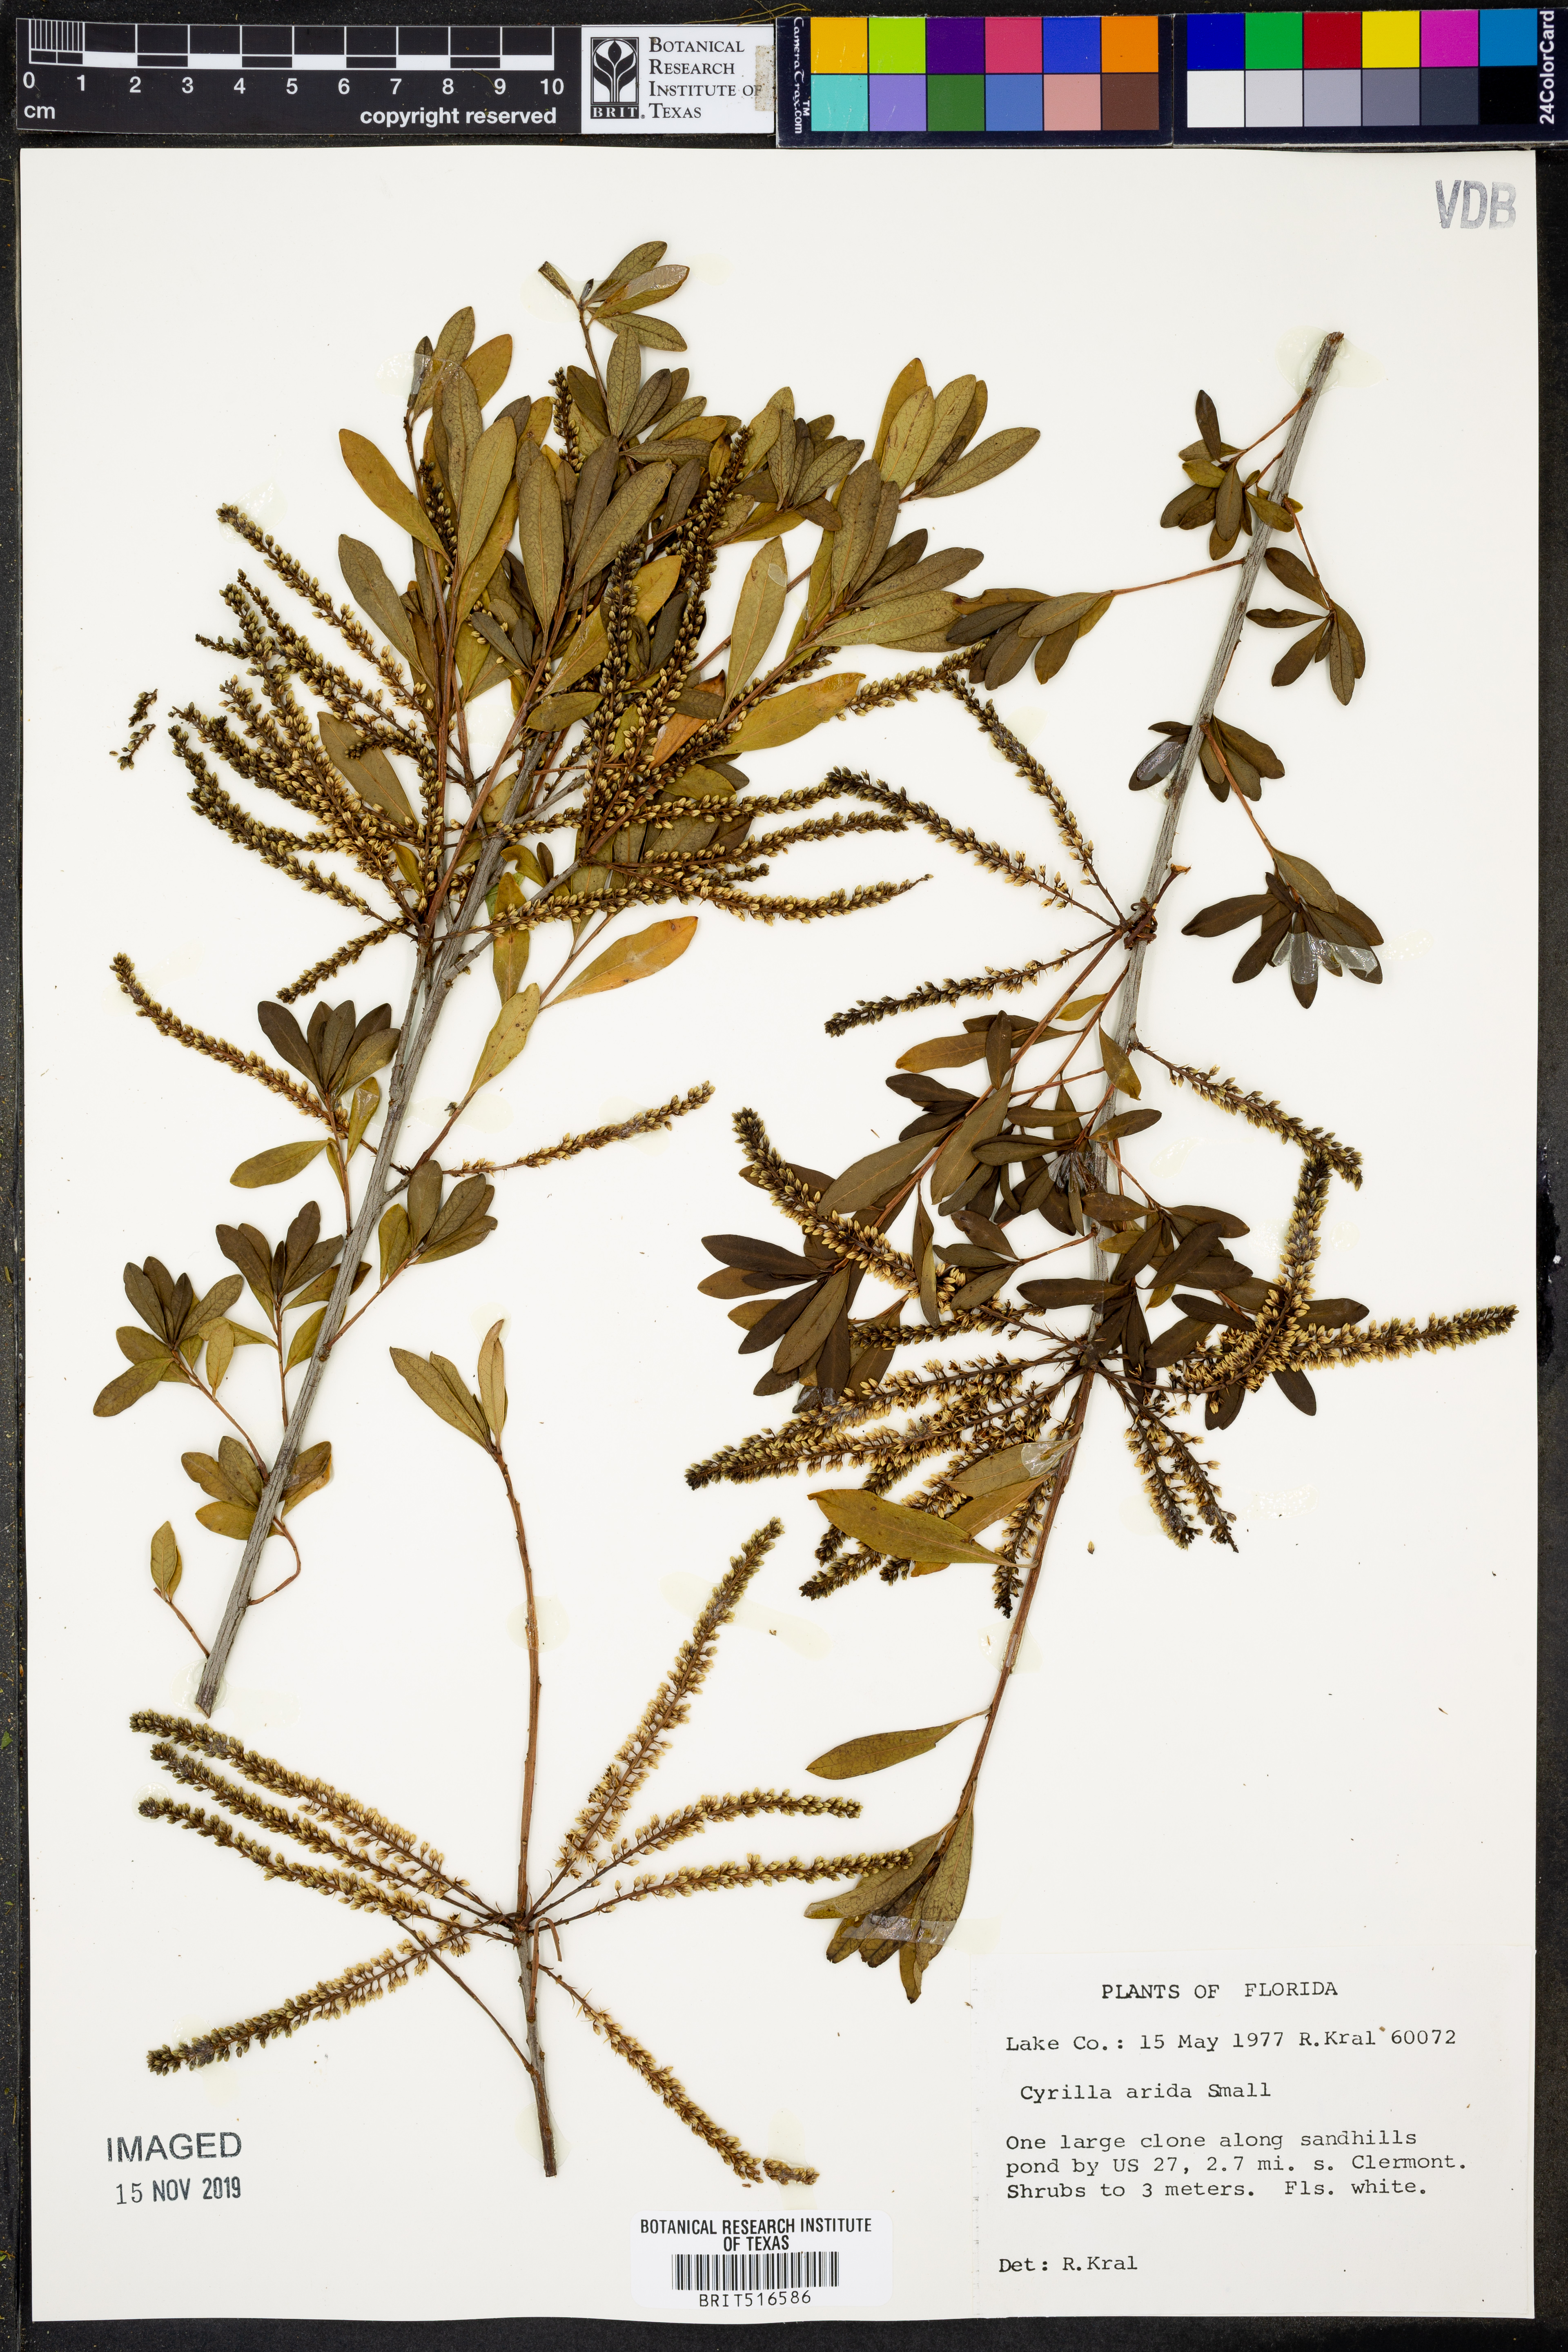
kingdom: Plantae
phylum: Tracheophyta
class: Magnoliopsida
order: Ericales
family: Cyrillaceae
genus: Cyrilla
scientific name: Cyrilla racemiflora
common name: Black titi
